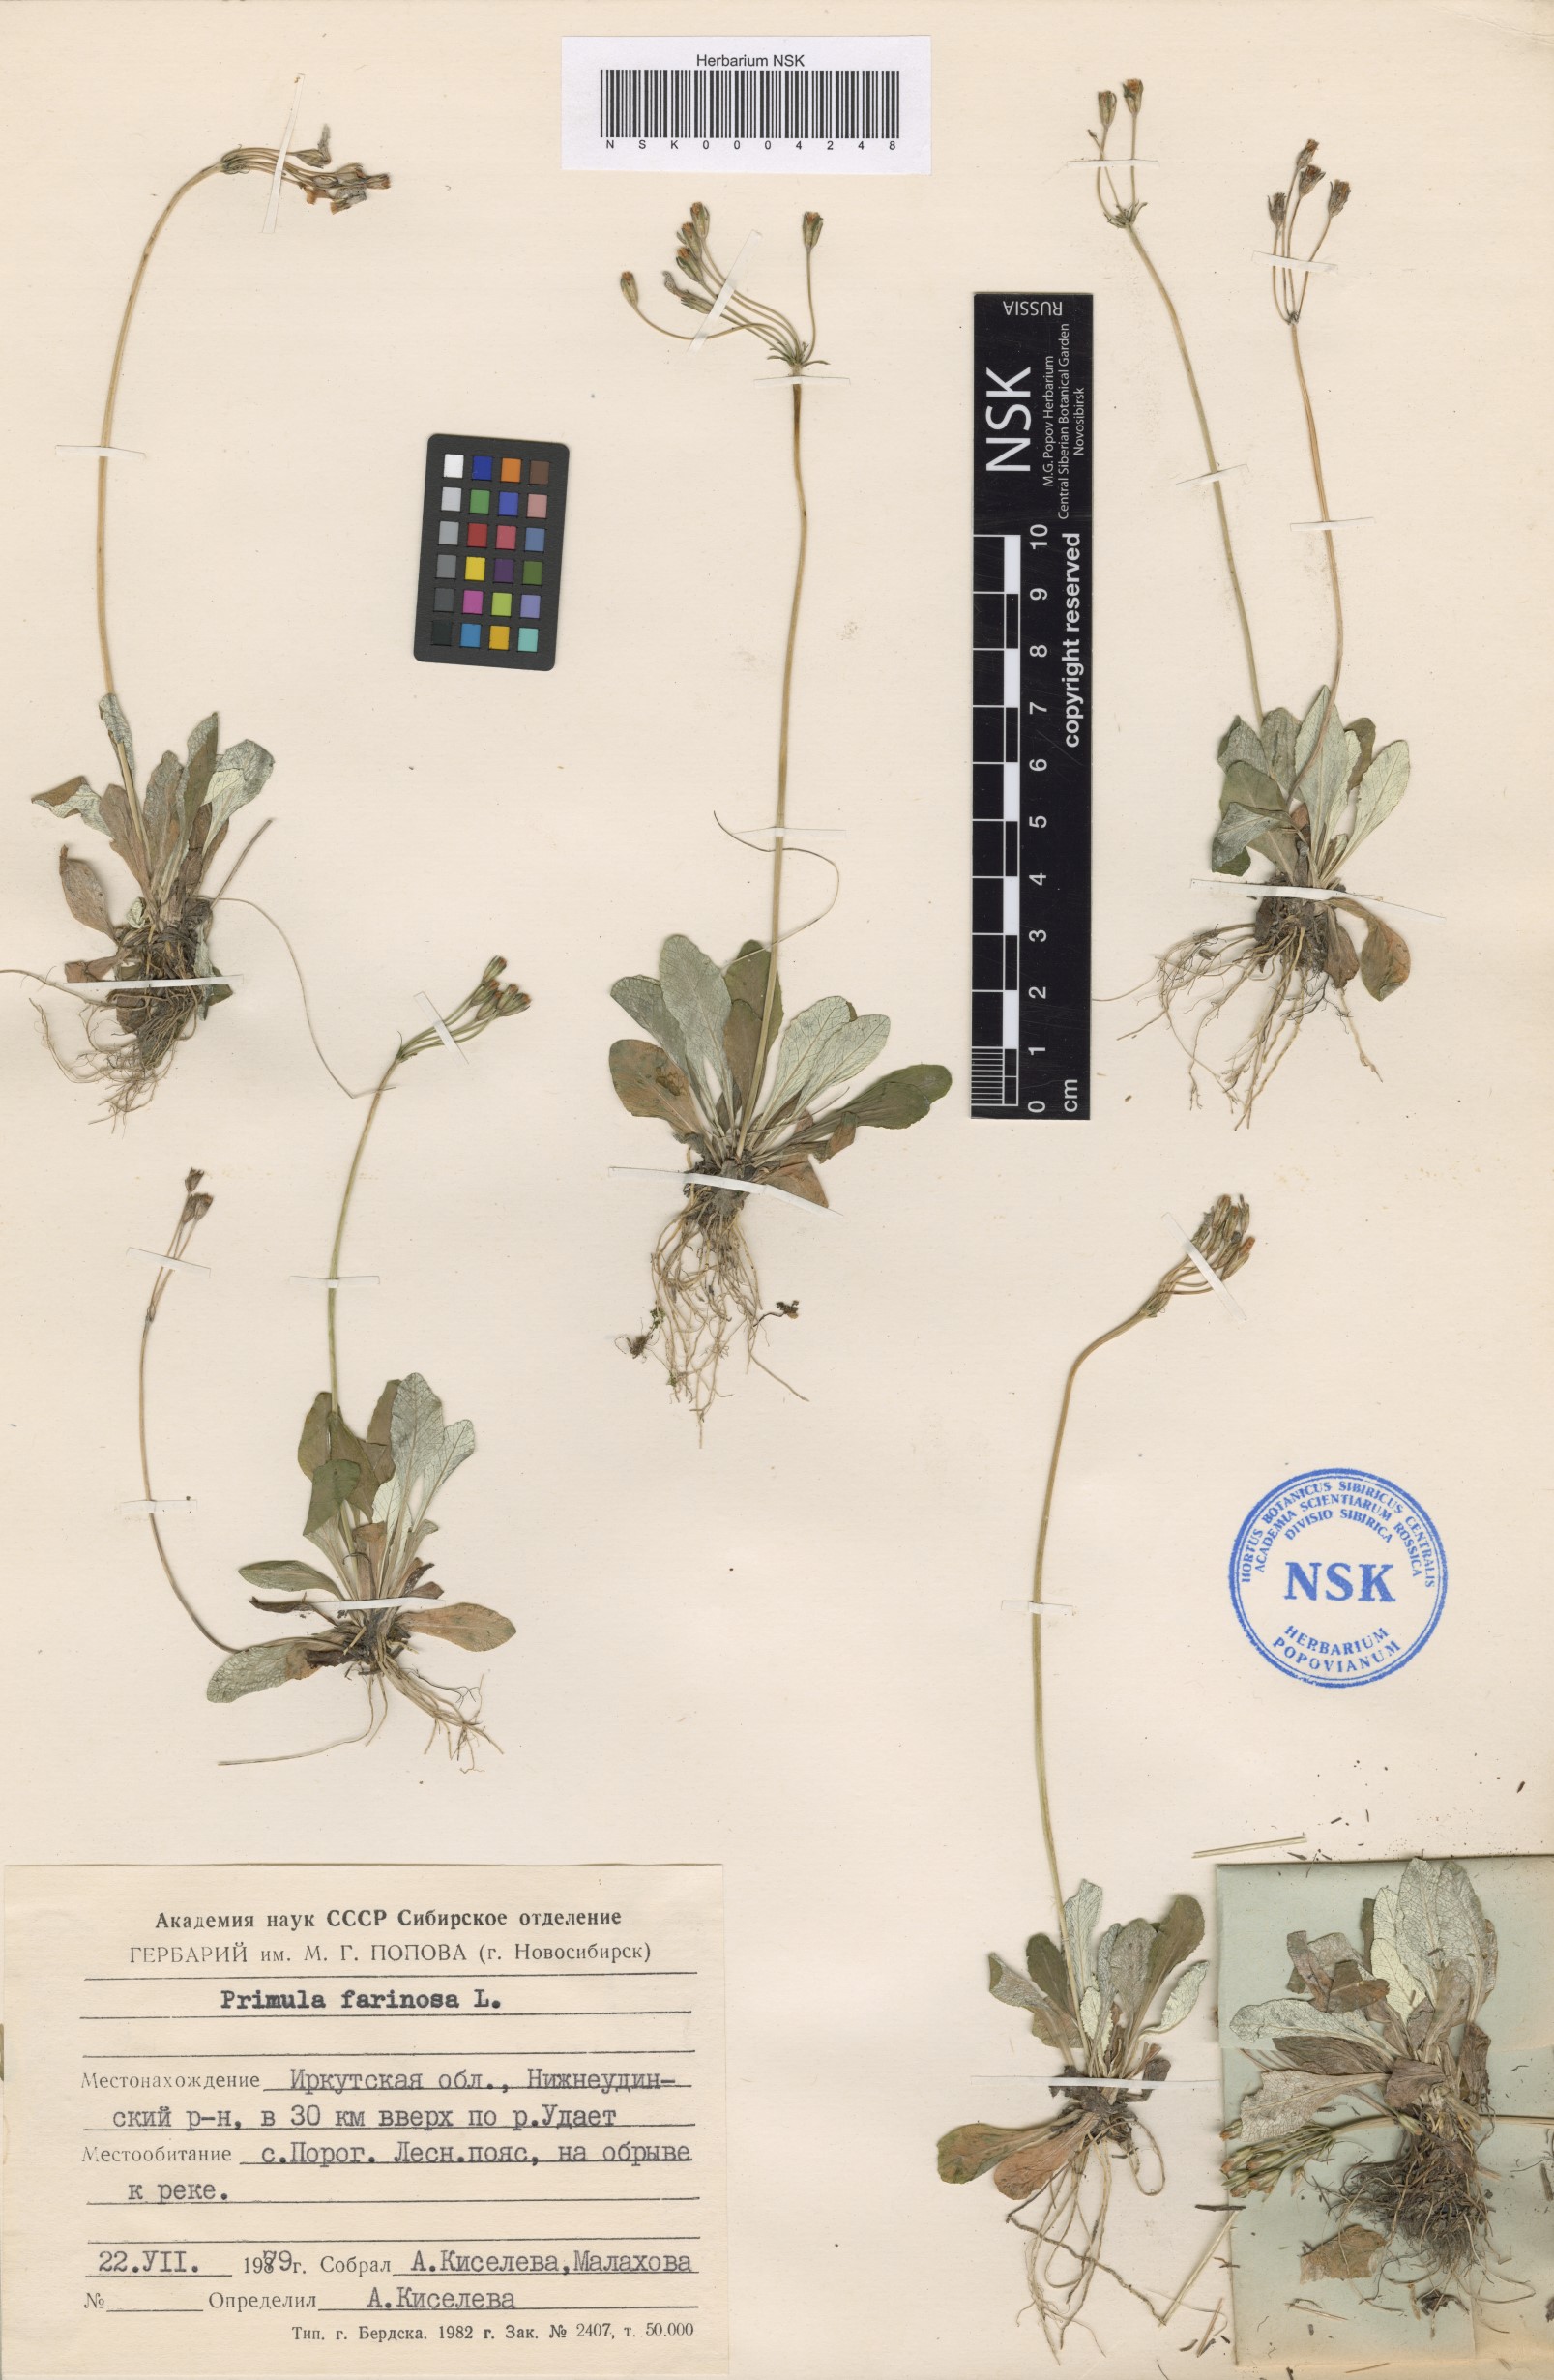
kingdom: Plantae
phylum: Tracheophyta
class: Magnoliopsida
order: Ericales
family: Primulaceae
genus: Primula
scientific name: Primula farinosa
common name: Bird's-eye primrose
